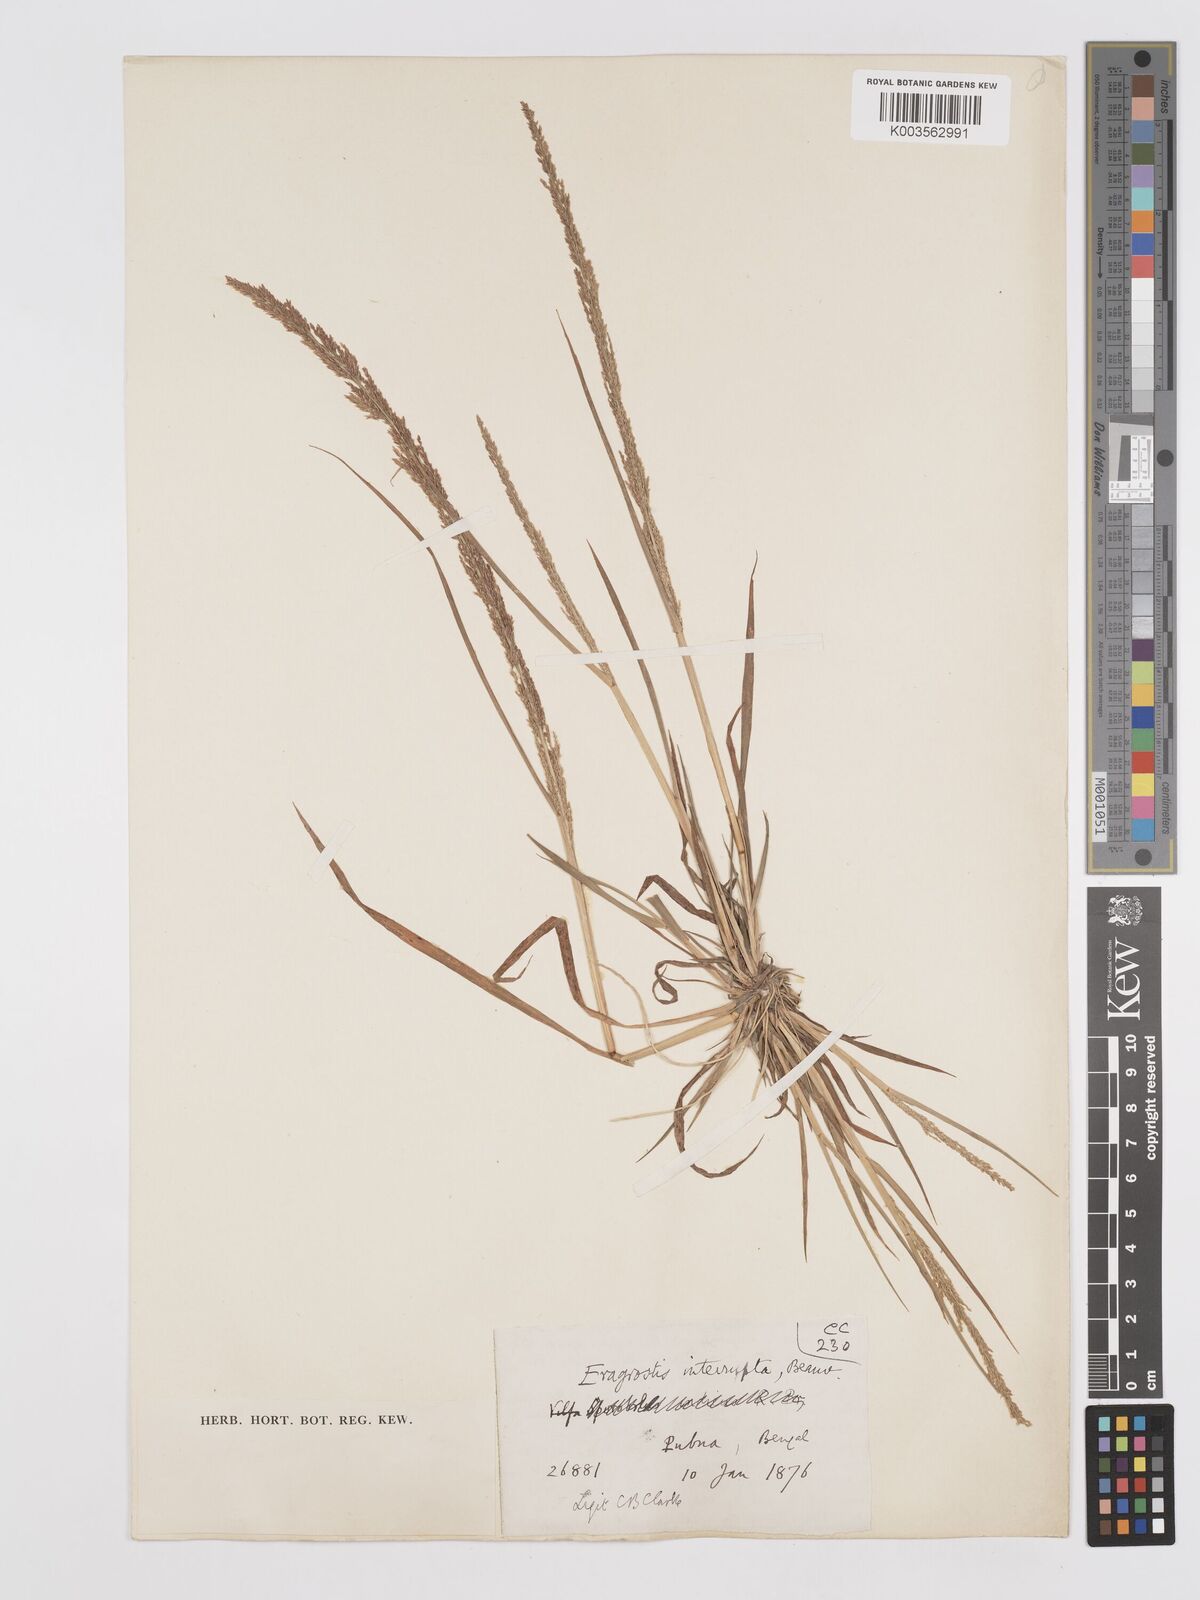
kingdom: Plantae
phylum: Tracheophyta
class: Liliopsida
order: Poales
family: Poaceae
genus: Eragrostis
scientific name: Eragrostis japonica
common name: Pond lovegrass
